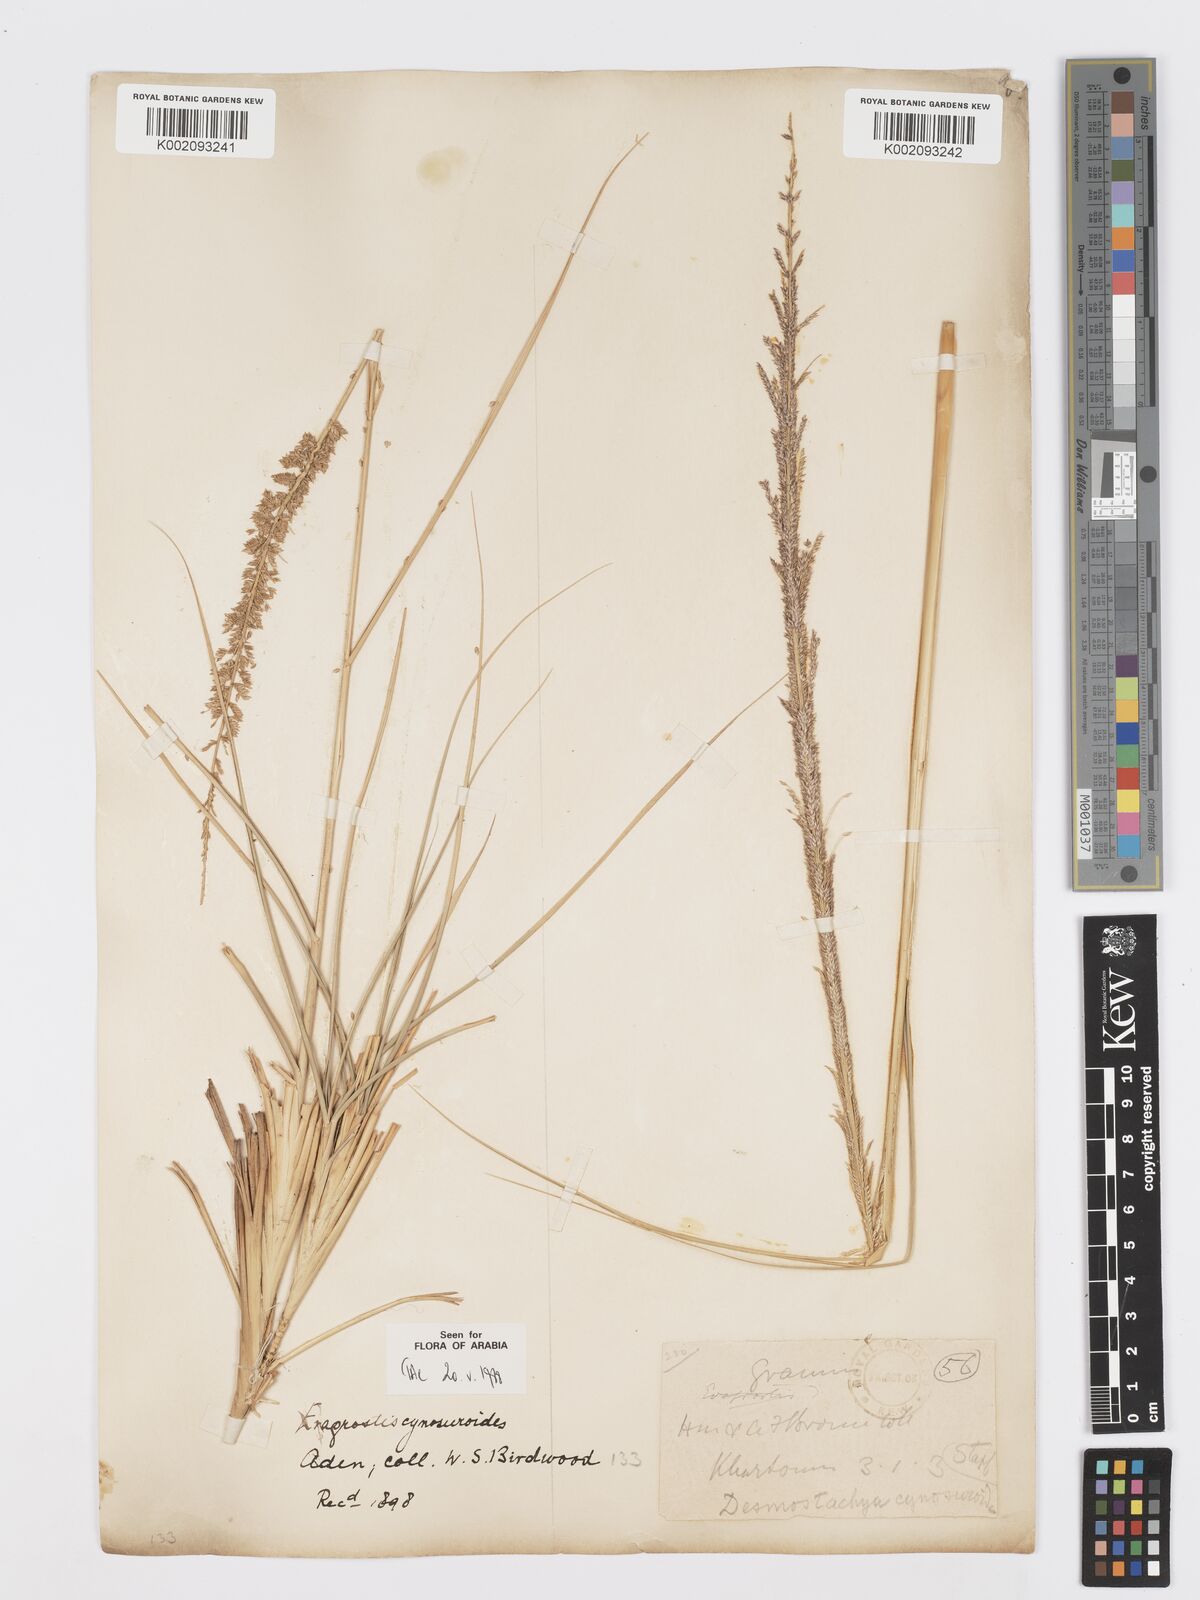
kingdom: Plantae
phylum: Tracheophyta
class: Liliopsida
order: Poales
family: Poaceae
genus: Desmostachya
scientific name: Desmostachya bipinnata
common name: Crowfoot grass
